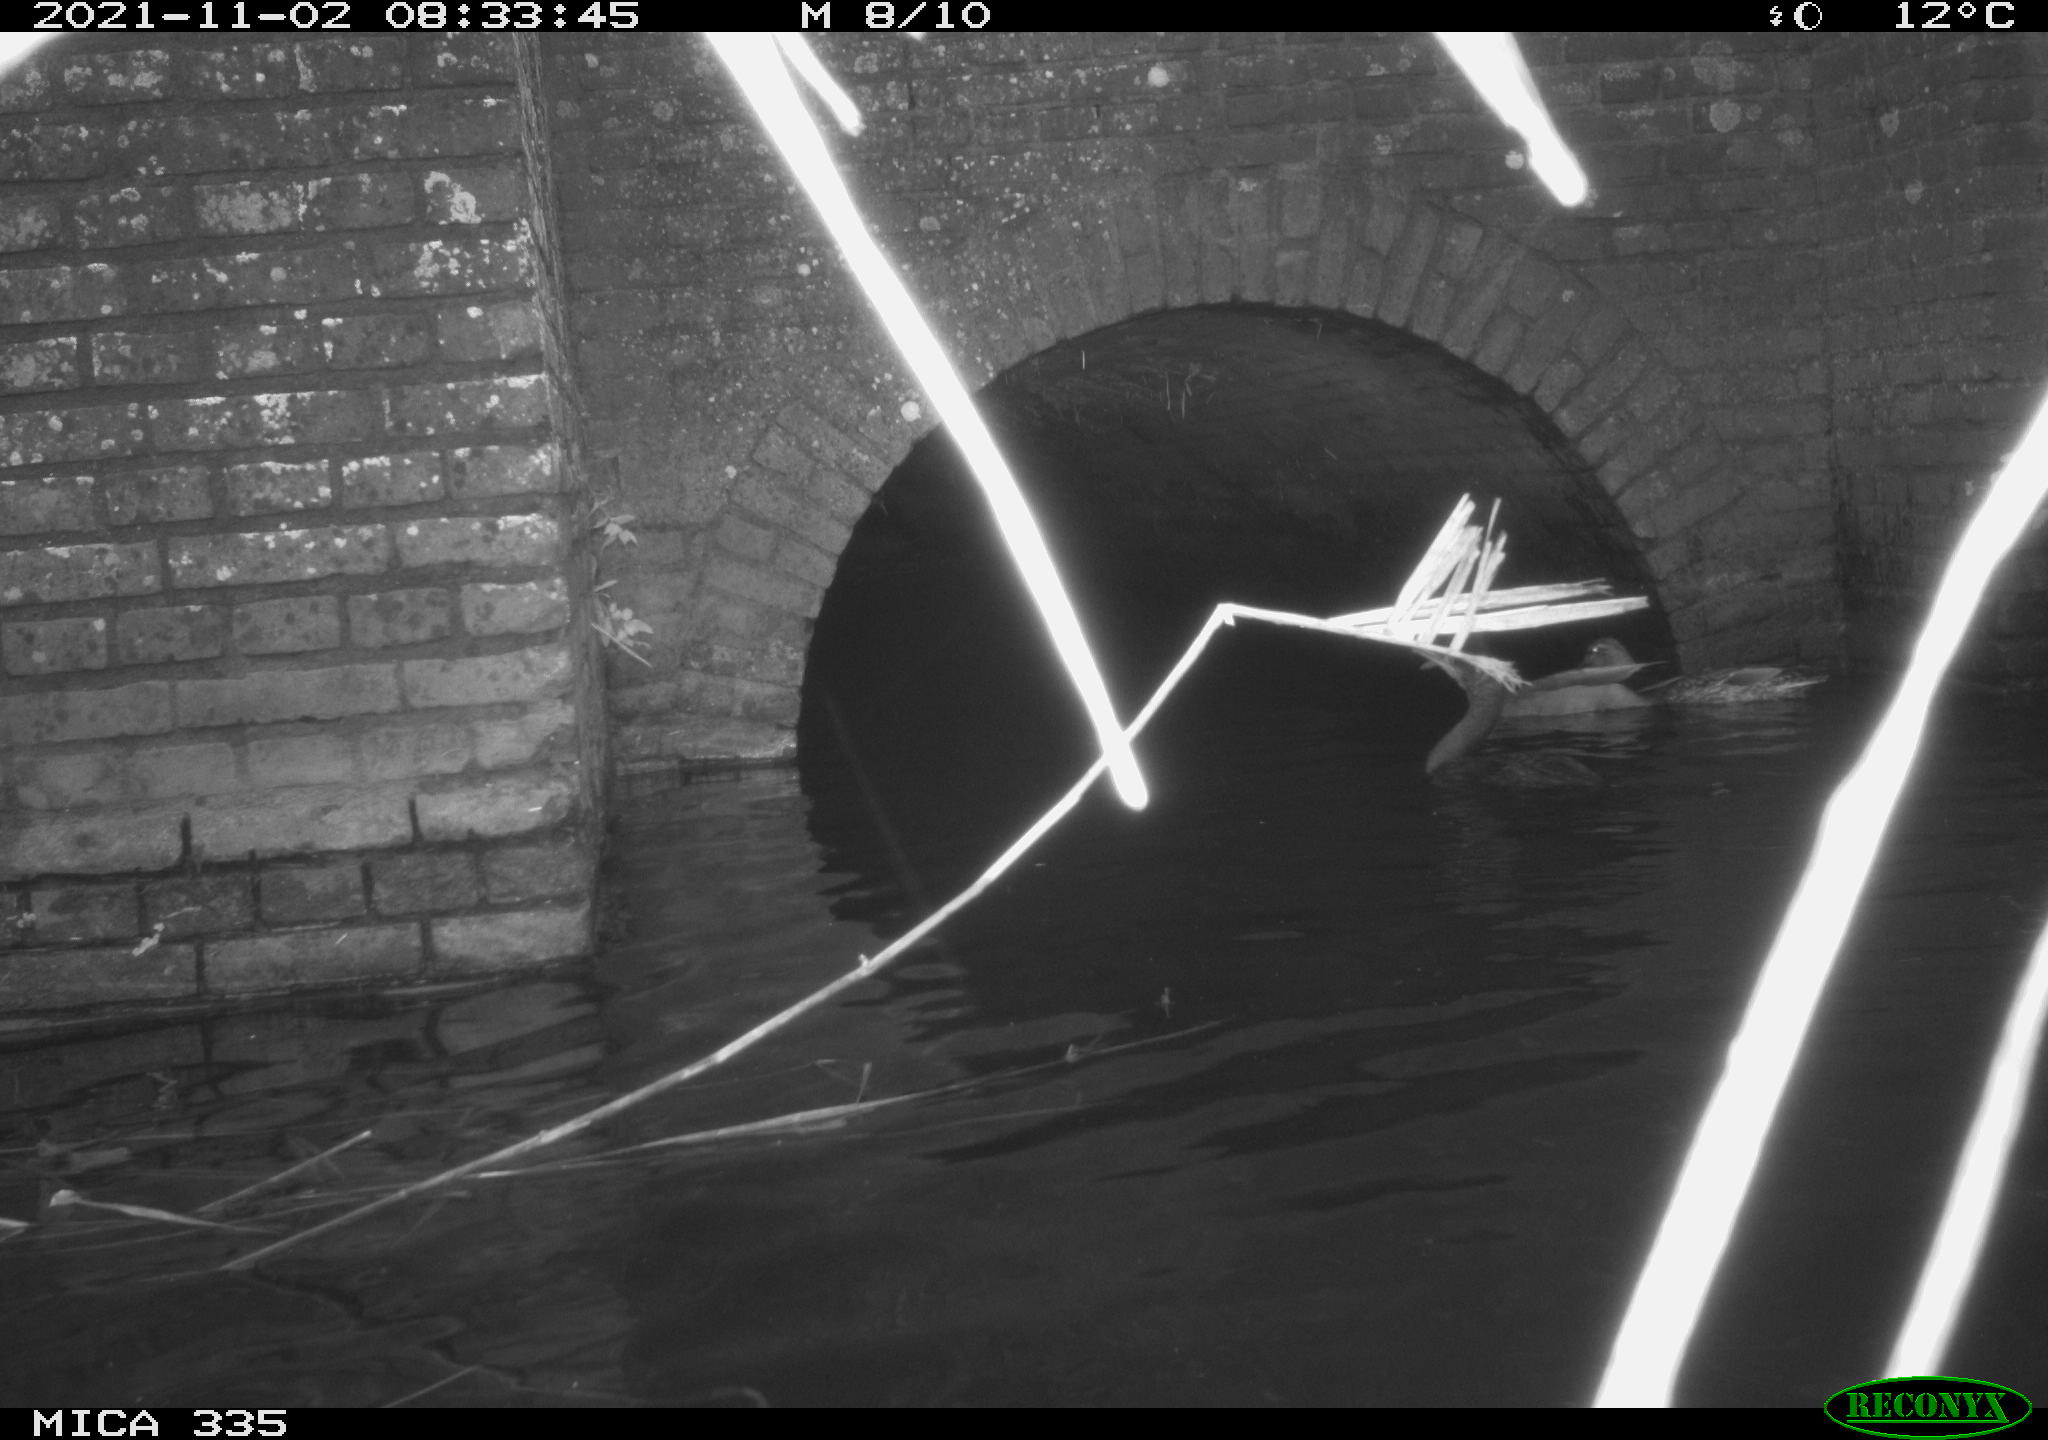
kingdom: Animalia
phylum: Chordata
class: Aves
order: Suliformes
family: Phalacrocoracidae
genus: Phalacrocorax
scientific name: Phalacrocorax carbo
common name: Great cormorant
